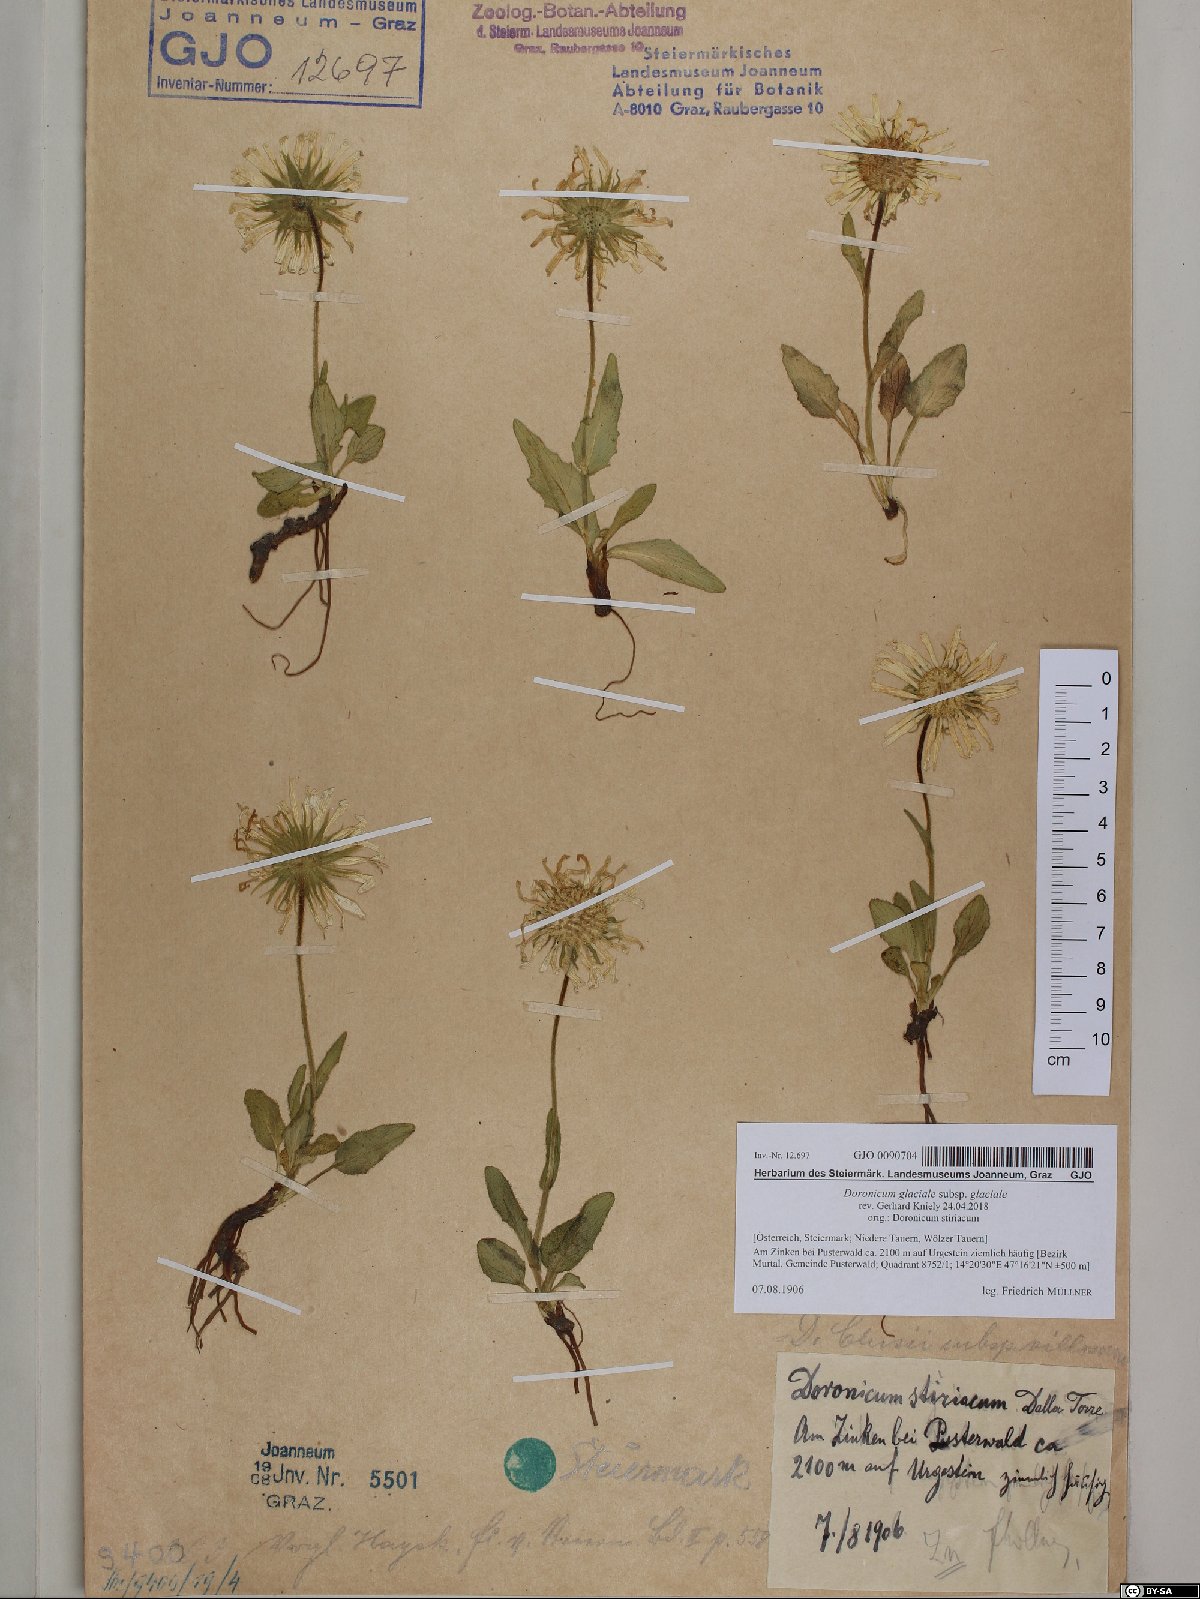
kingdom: Plantae
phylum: Tracheophyta
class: Magnoliopsida
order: Asterales
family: Asteraceae
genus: Doronicum
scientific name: Doronicum glaciale
